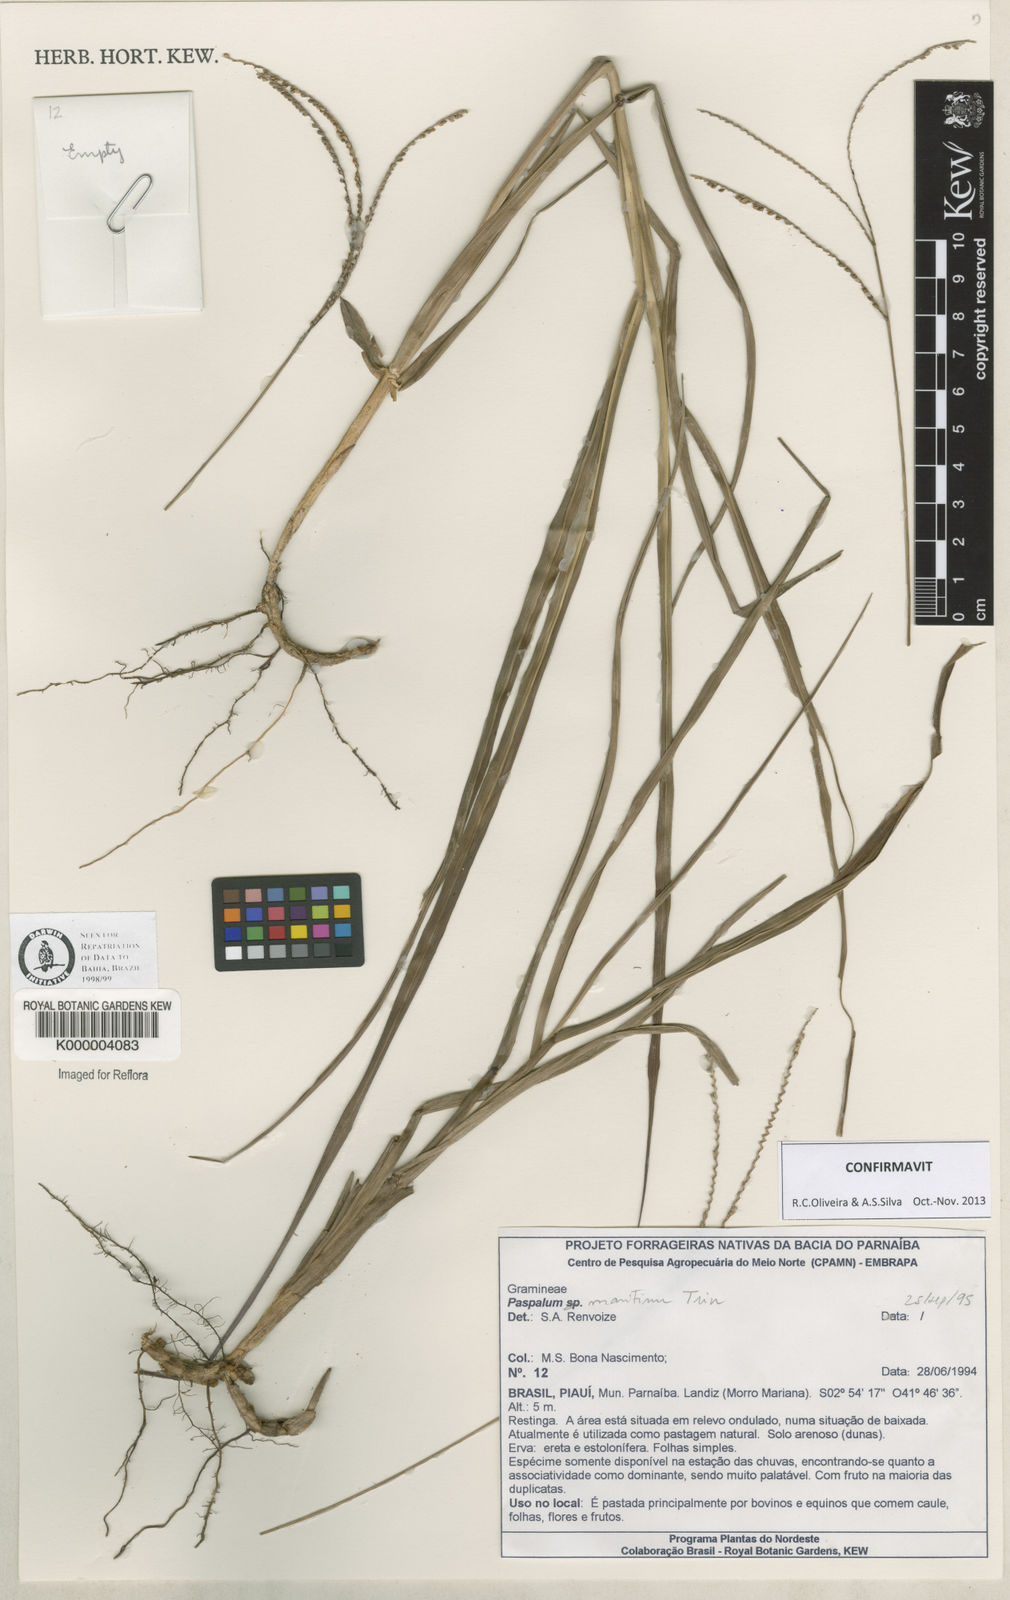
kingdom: Plantae
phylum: Tracheophyta
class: Liliopsida
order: Poales
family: Poaceae
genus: Paspalum
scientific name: Paspalum maritimum
